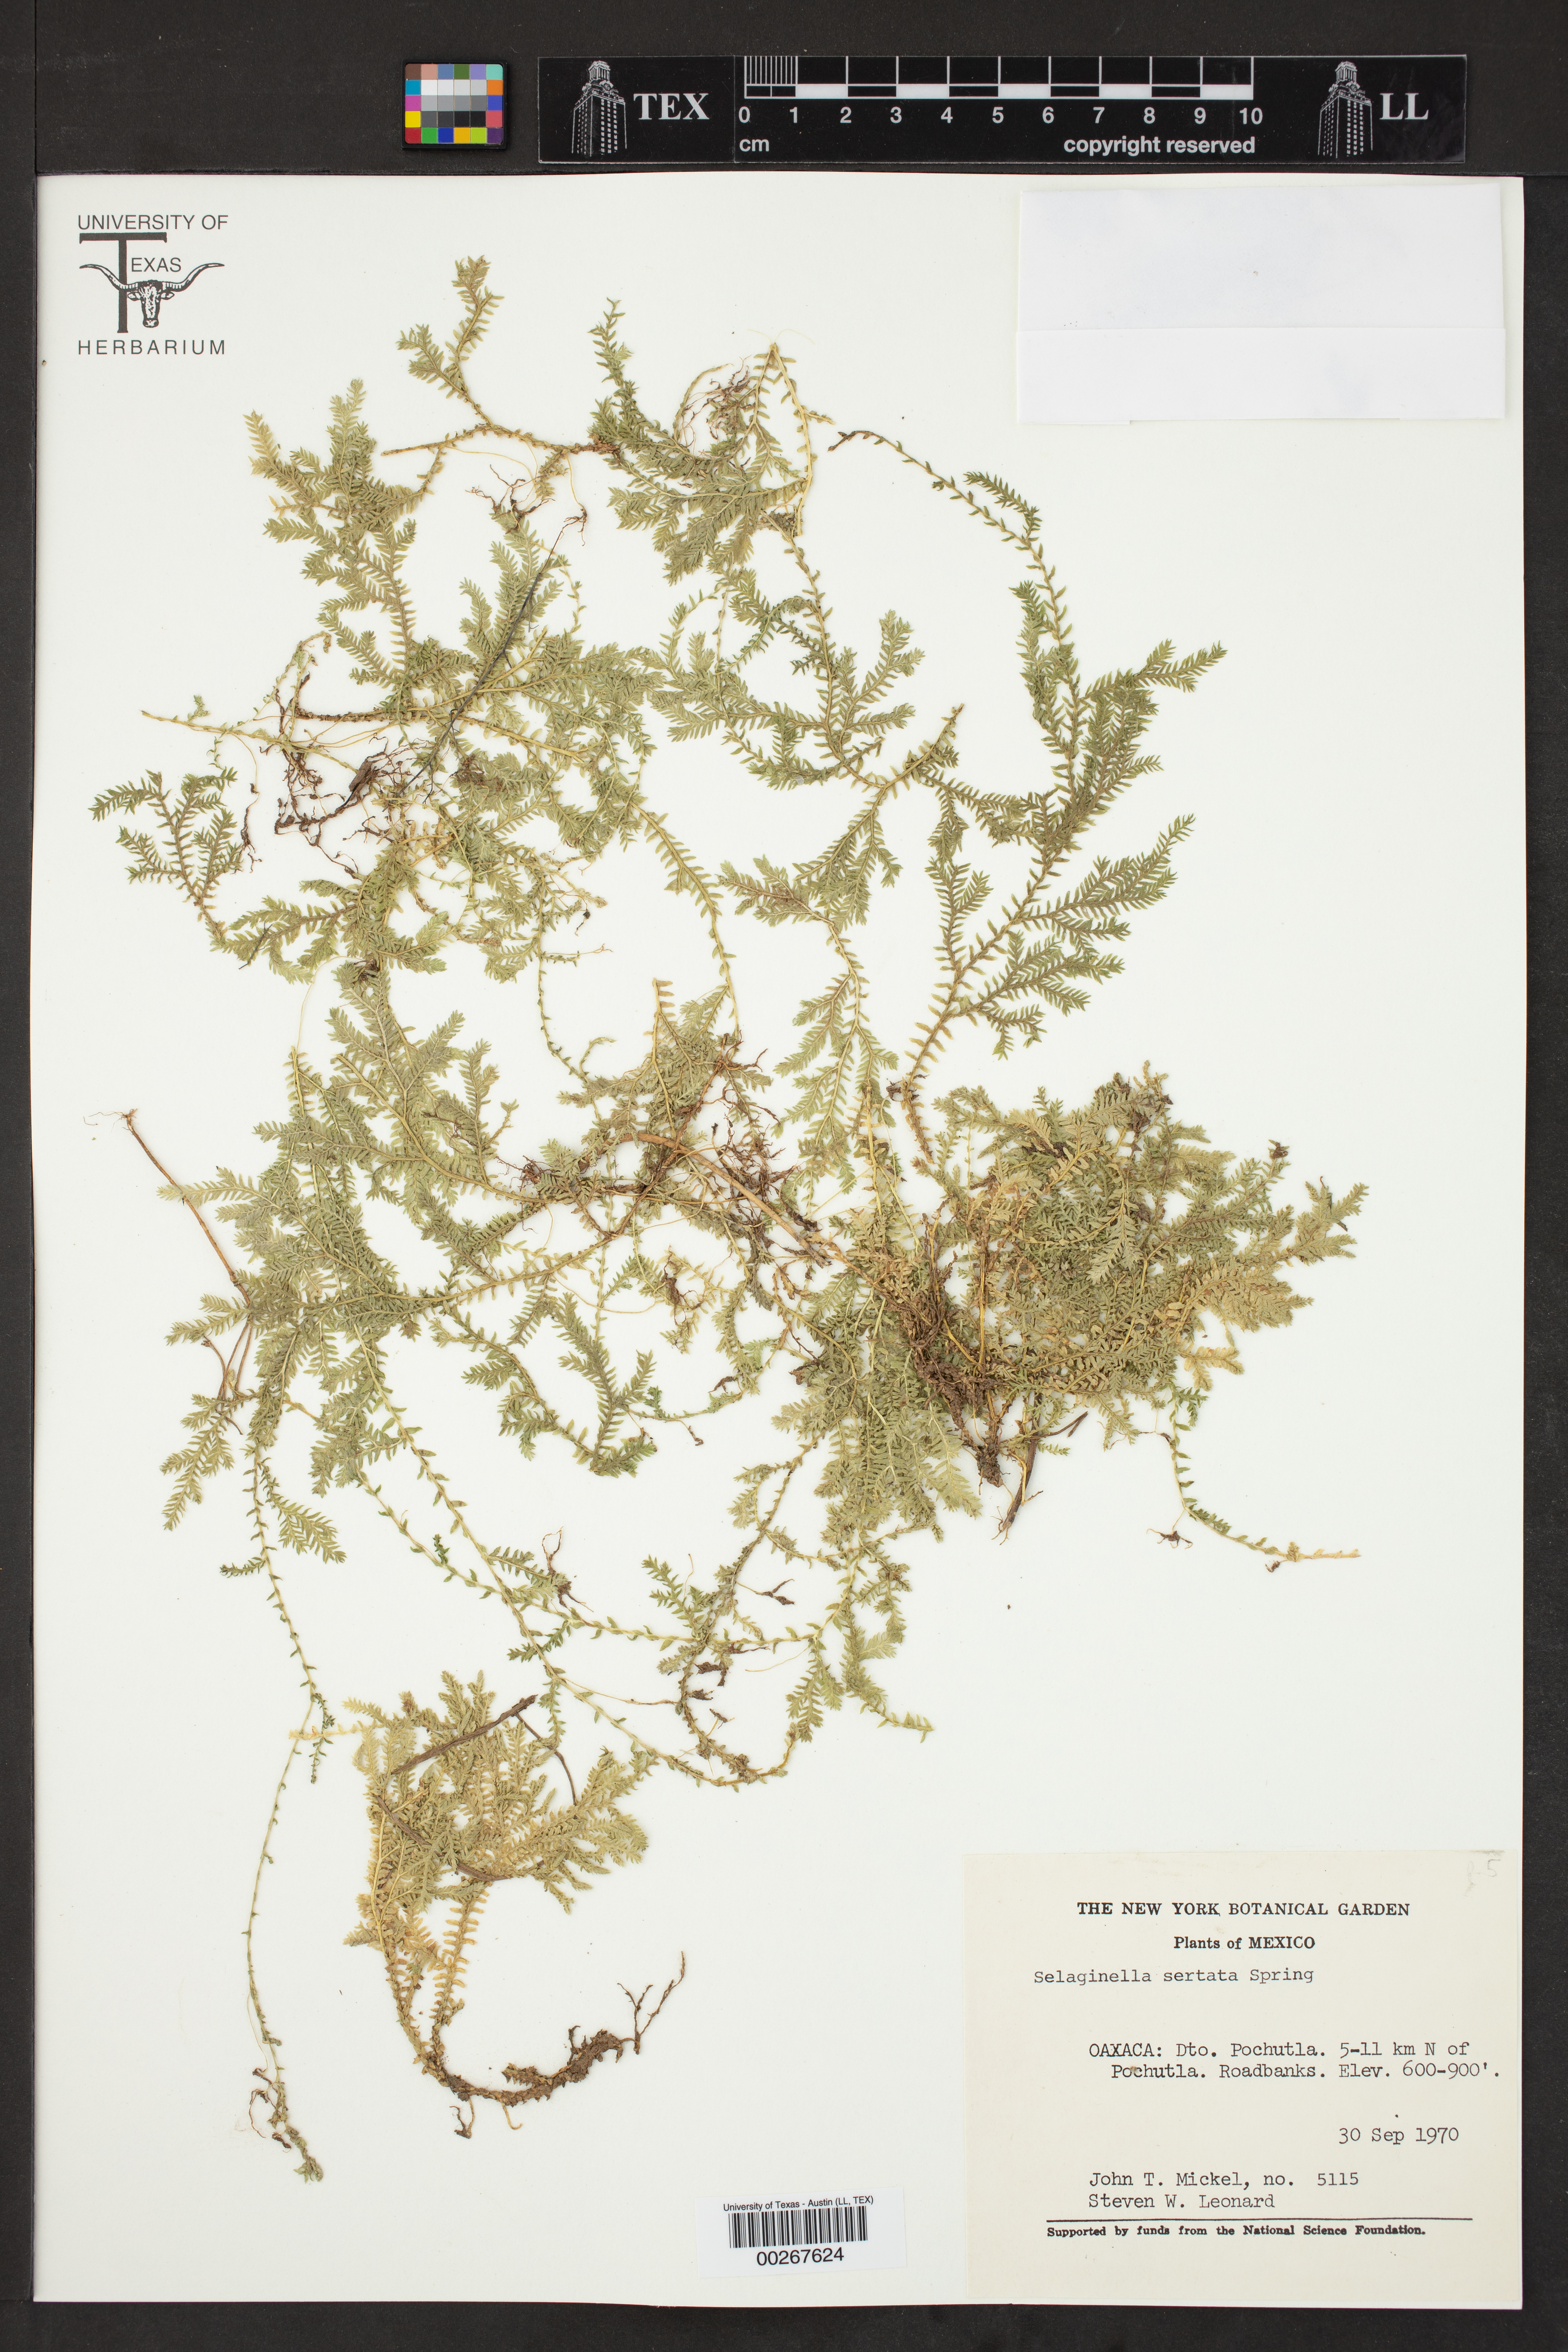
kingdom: Plantae
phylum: Tracheophyta
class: Lycopodiopsida
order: Selaginellales
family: Selaginellaceae
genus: Selaginella
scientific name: Selaginella sertata
